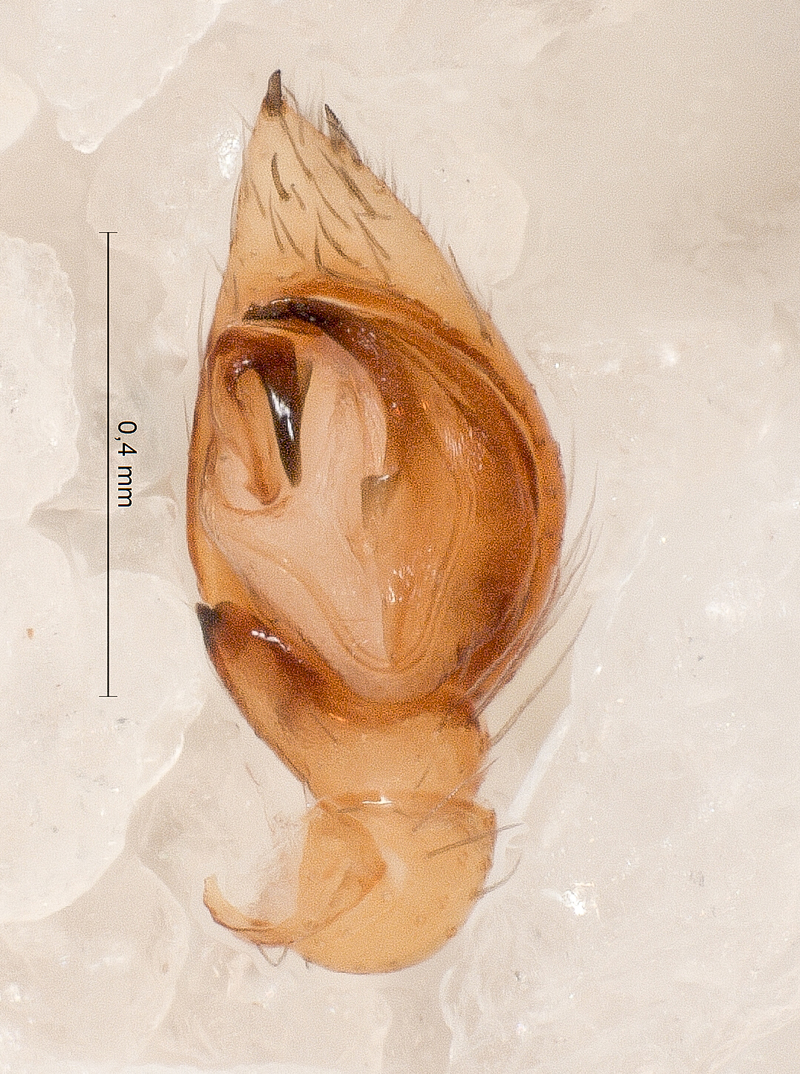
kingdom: Animalia
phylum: Arthropoda
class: Arachnida
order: Araneae
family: Zodariidae
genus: Zodarion
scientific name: Zodarion rubidum
